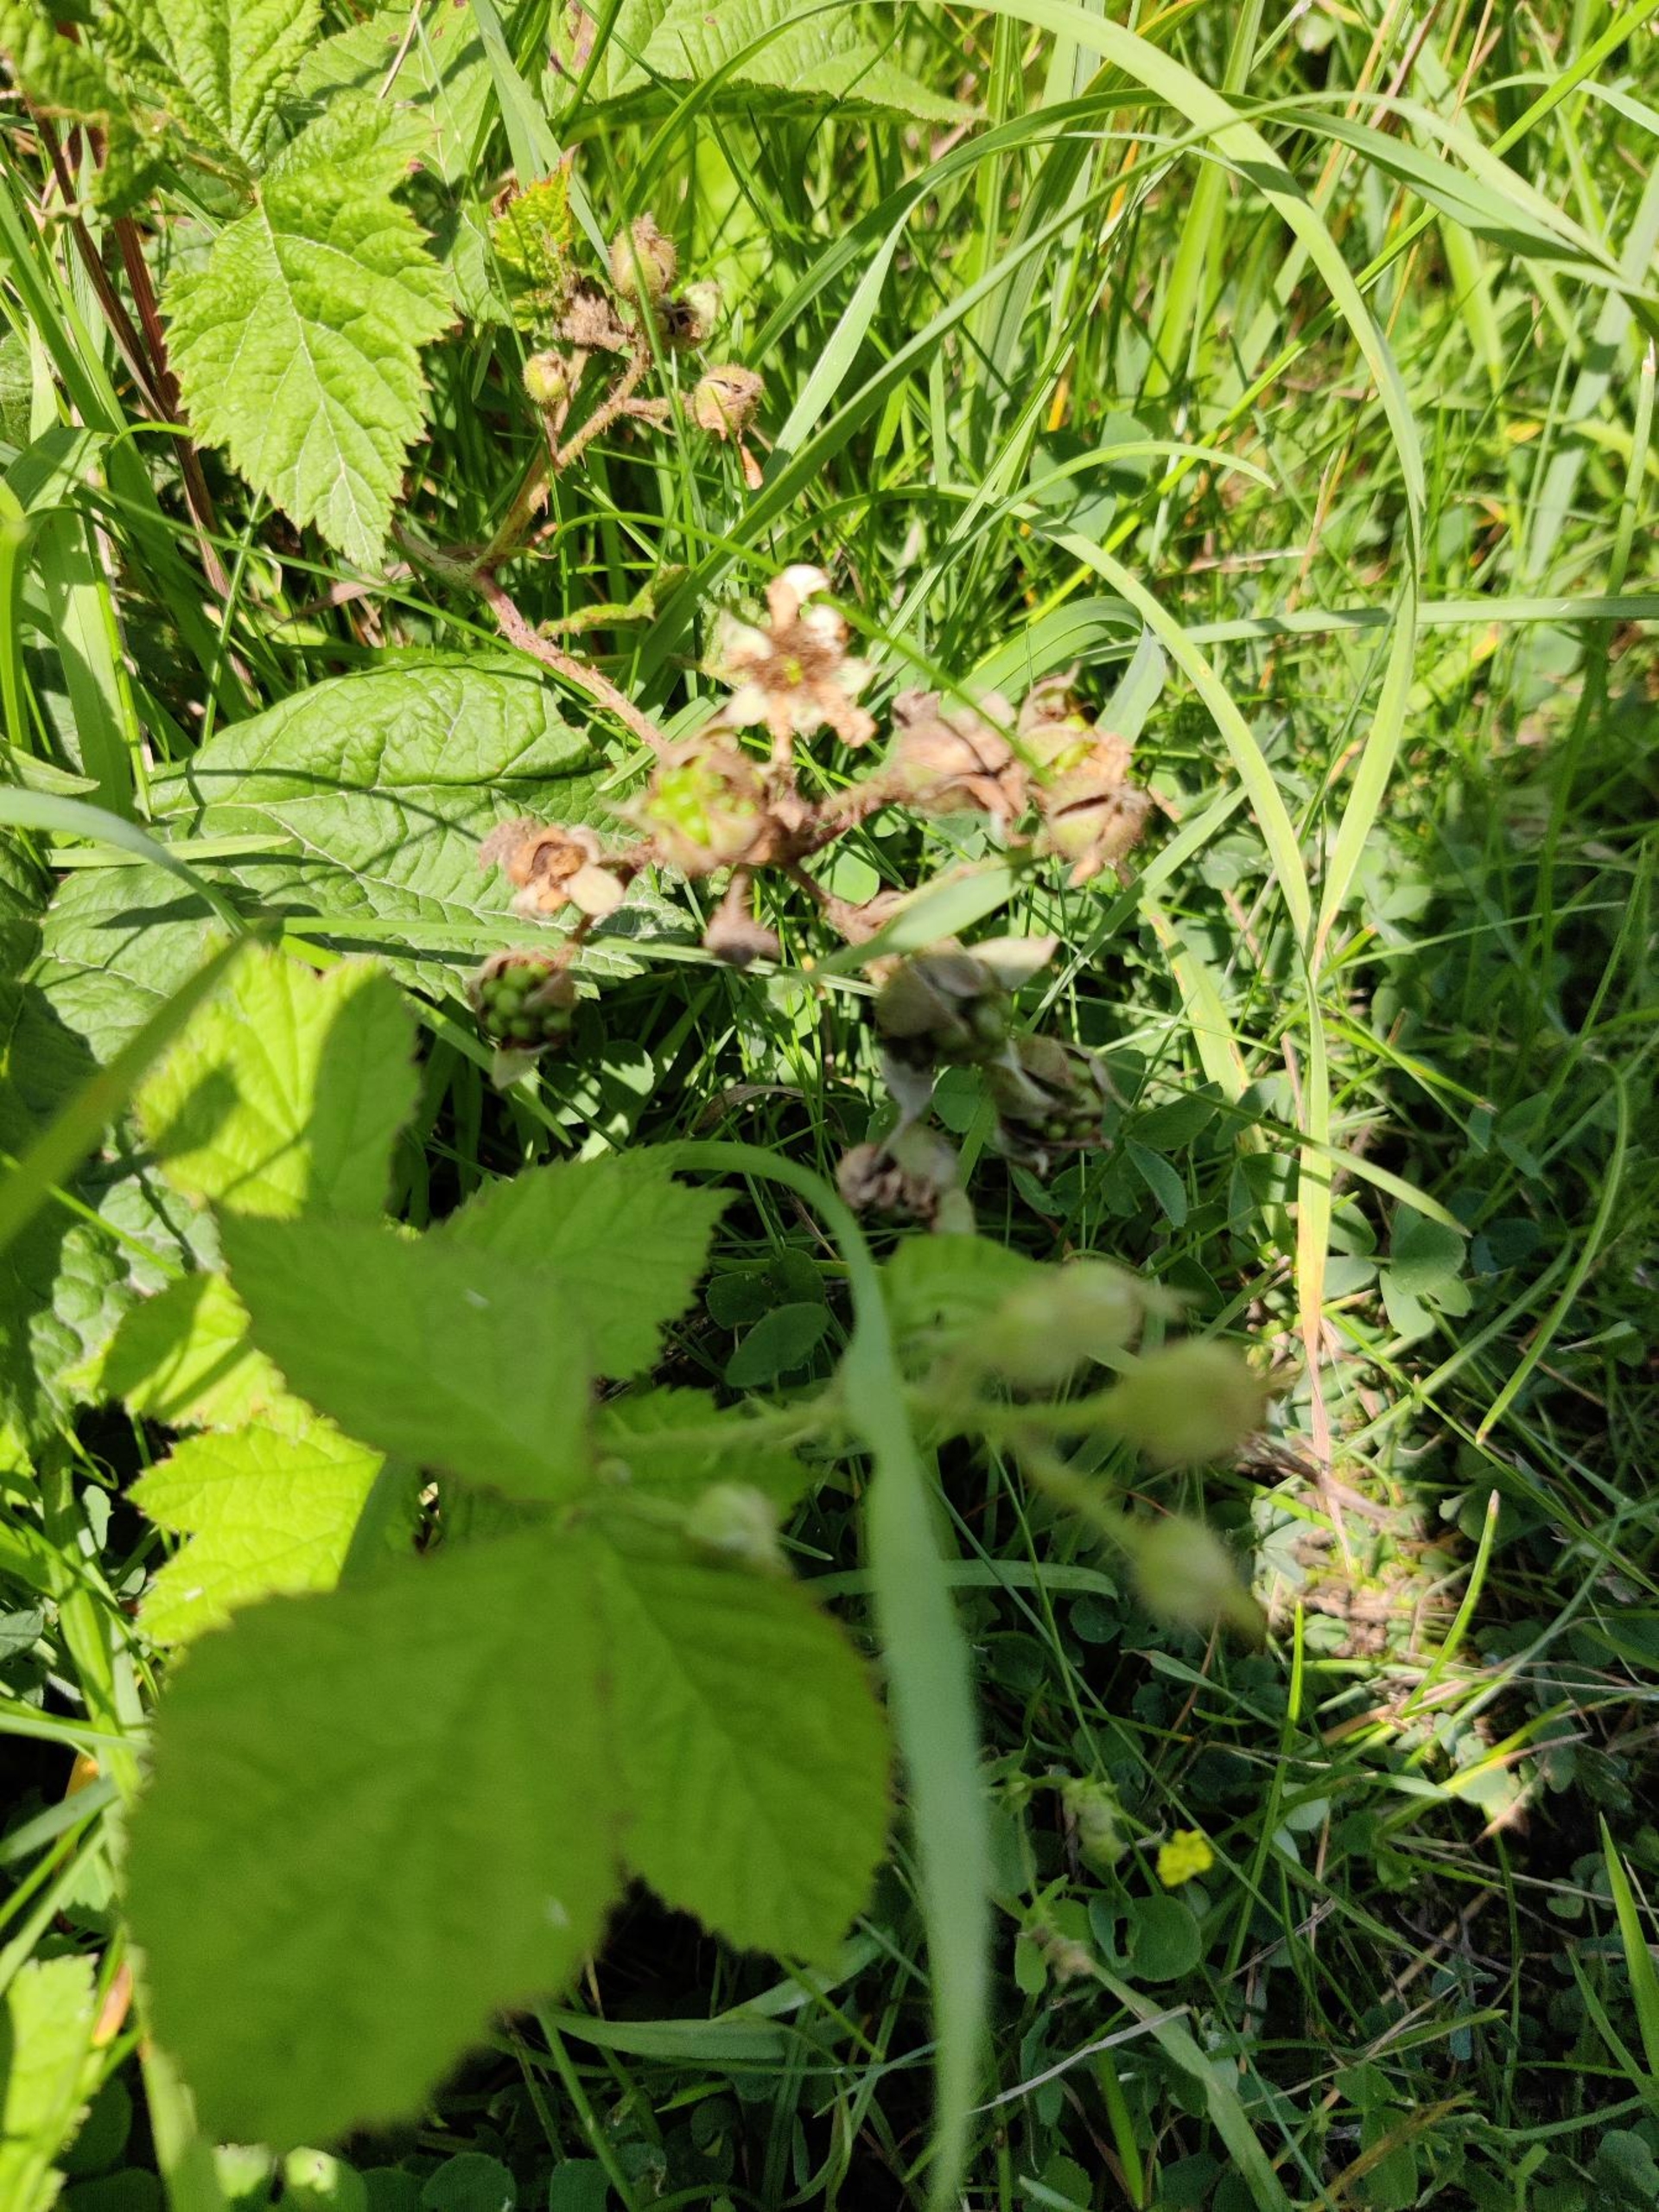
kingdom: Plantae
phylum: Tracheophyta
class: Magnoliopsida
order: Rosales
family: Rosaceae
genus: Rubus
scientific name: Rubus caesius
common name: Korbær
